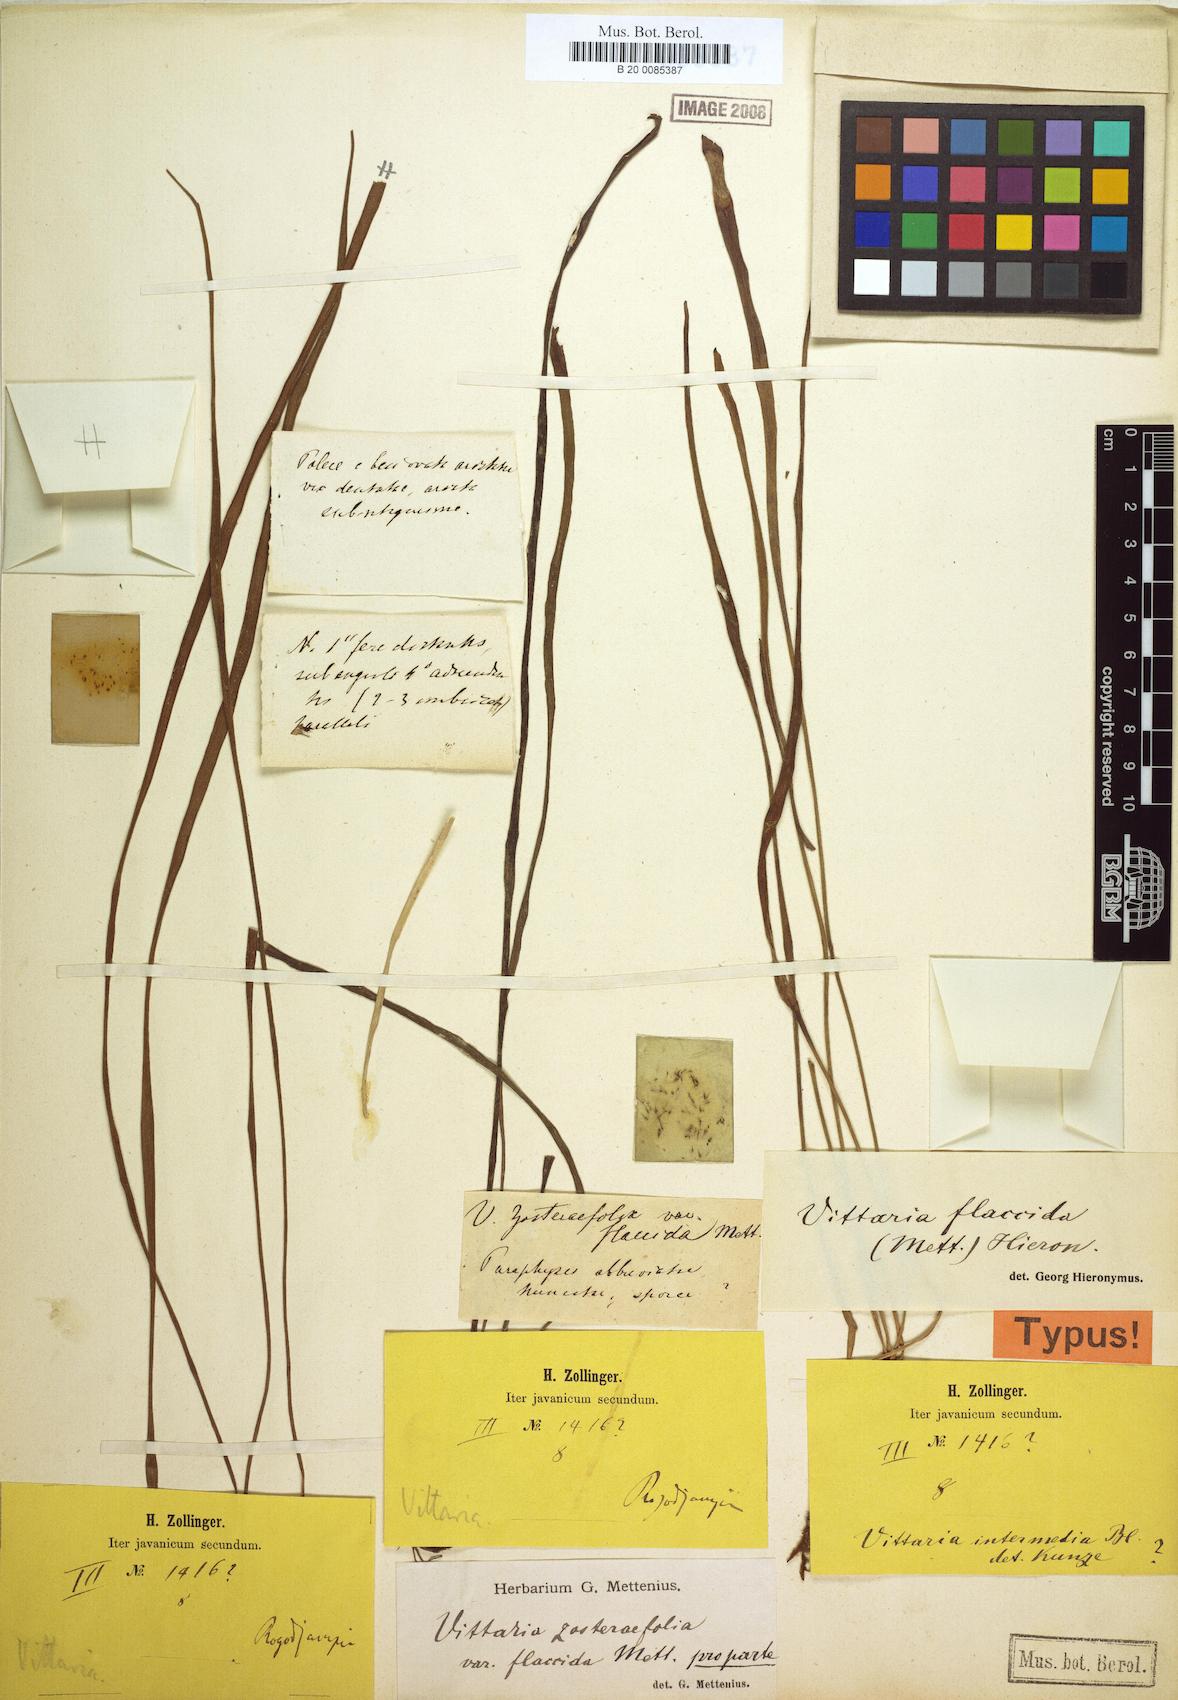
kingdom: Plantae
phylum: Tracheophyta
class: Polypodiopsida
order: Polypodiales
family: Pteridaceae
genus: Haplopteris
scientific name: Haplopteris elongata
